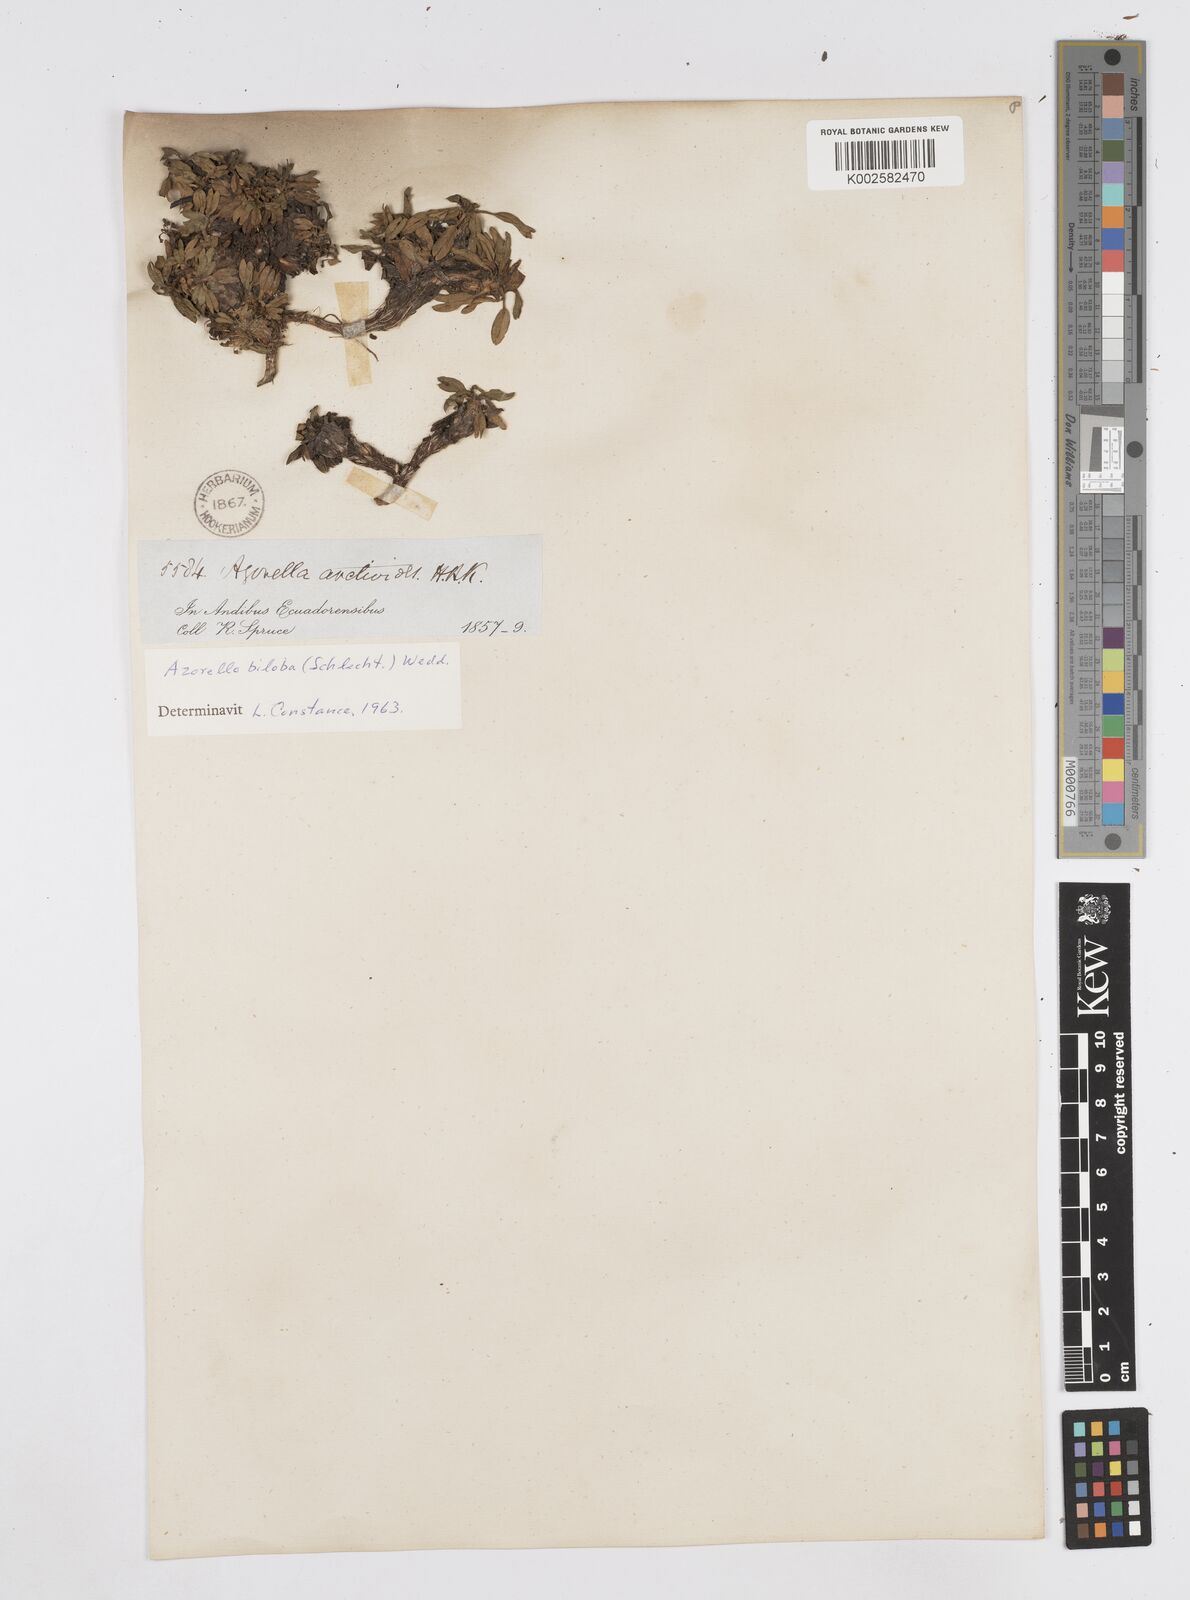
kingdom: Plantae
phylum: Tracheophyta
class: Magnoliopsida
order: Apiales
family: Apiaceae
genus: Azorella
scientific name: Azorella biloba
